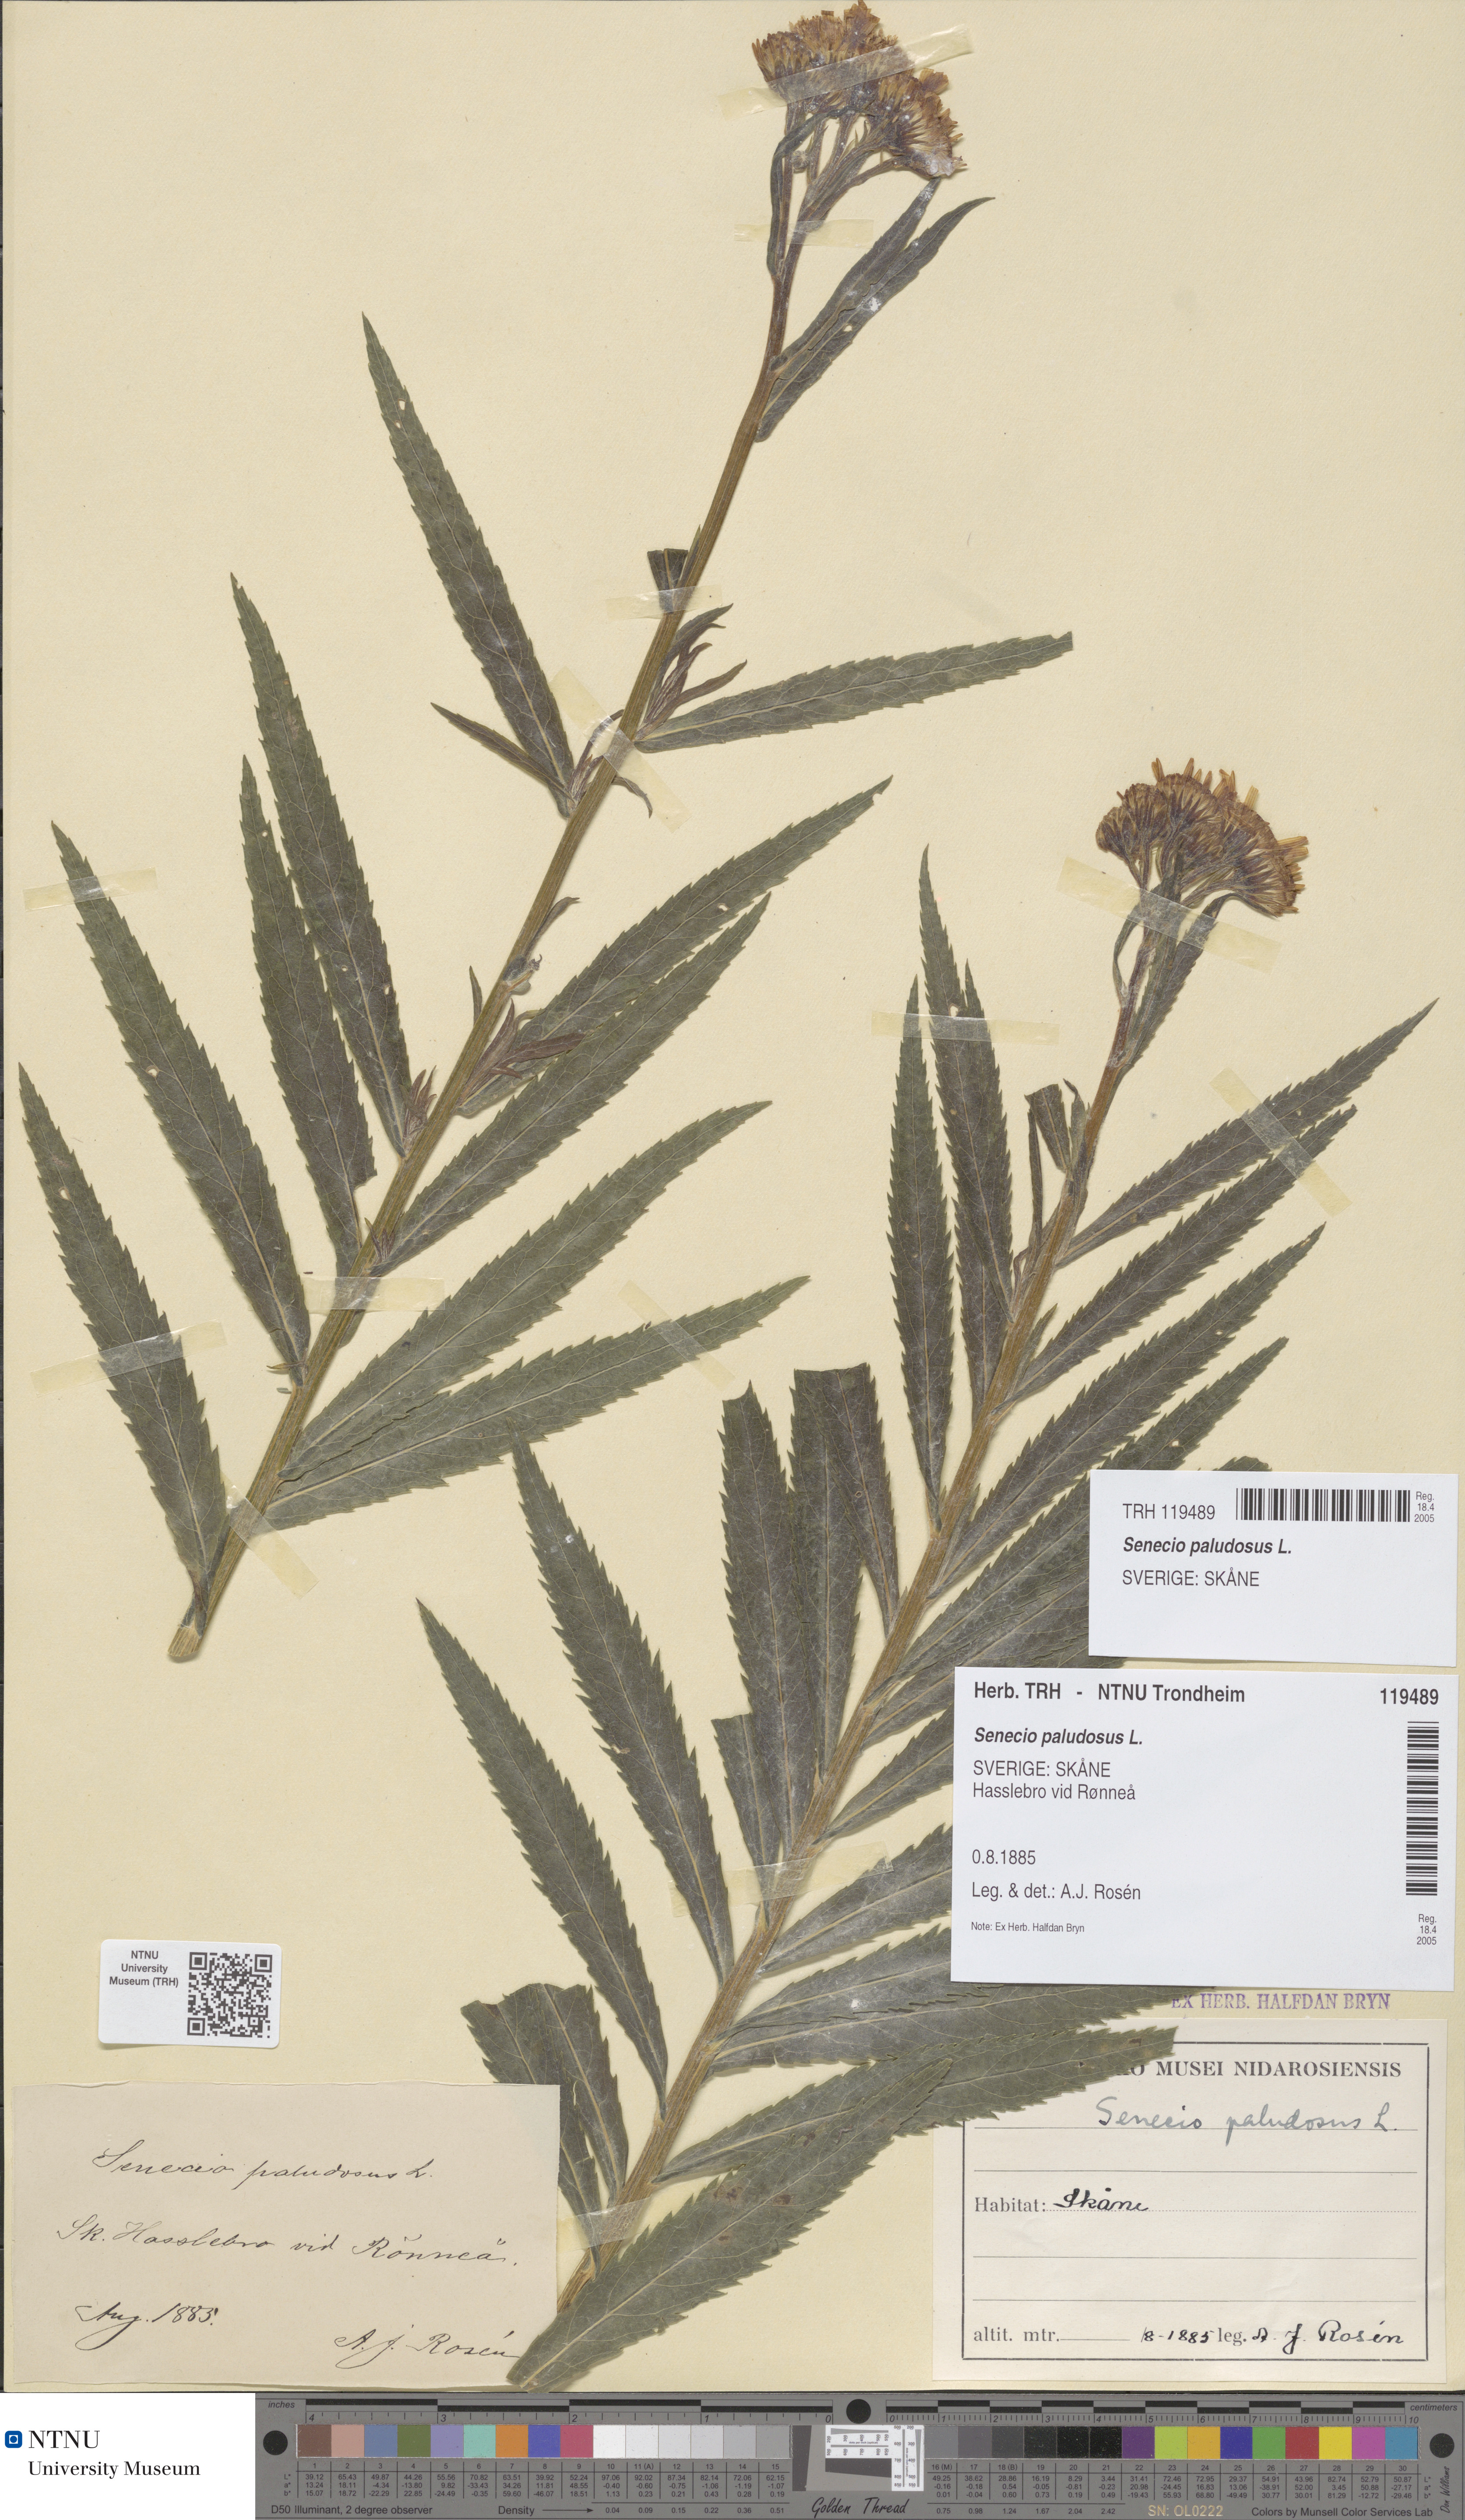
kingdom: Plantae
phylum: Tracheophyta
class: Magnoliopsida
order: Asterales
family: Asteraceae
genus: Jacobaea
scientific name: Jacobaea paludosa
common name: Fen ragwort
